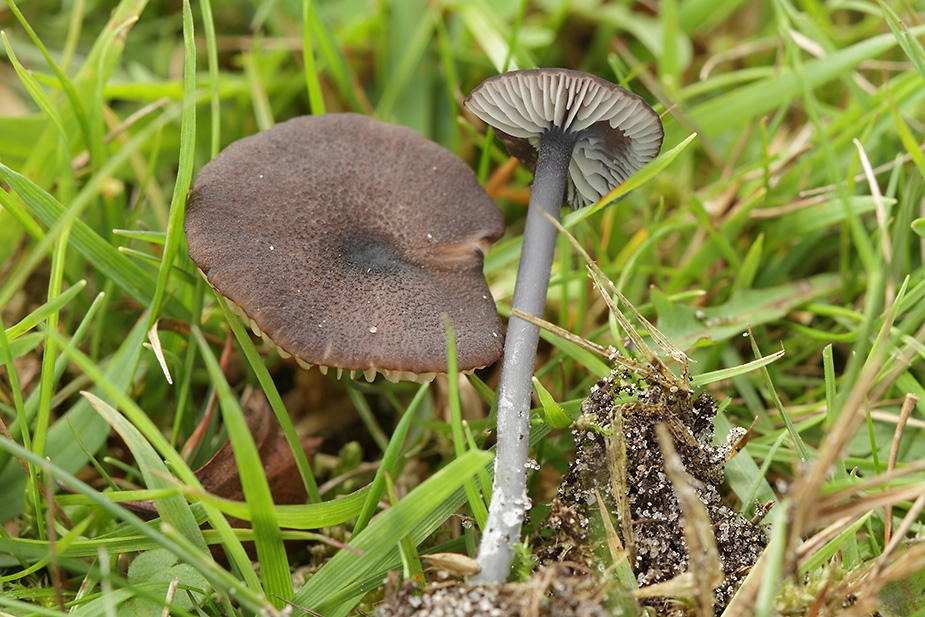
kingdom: Fungi
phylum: Basidiomycota
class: Agaricomycetes
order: Agaricales
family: Entolomataceae
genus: Entoloma
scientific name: Entoloma asprellum
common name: ru rødblad
